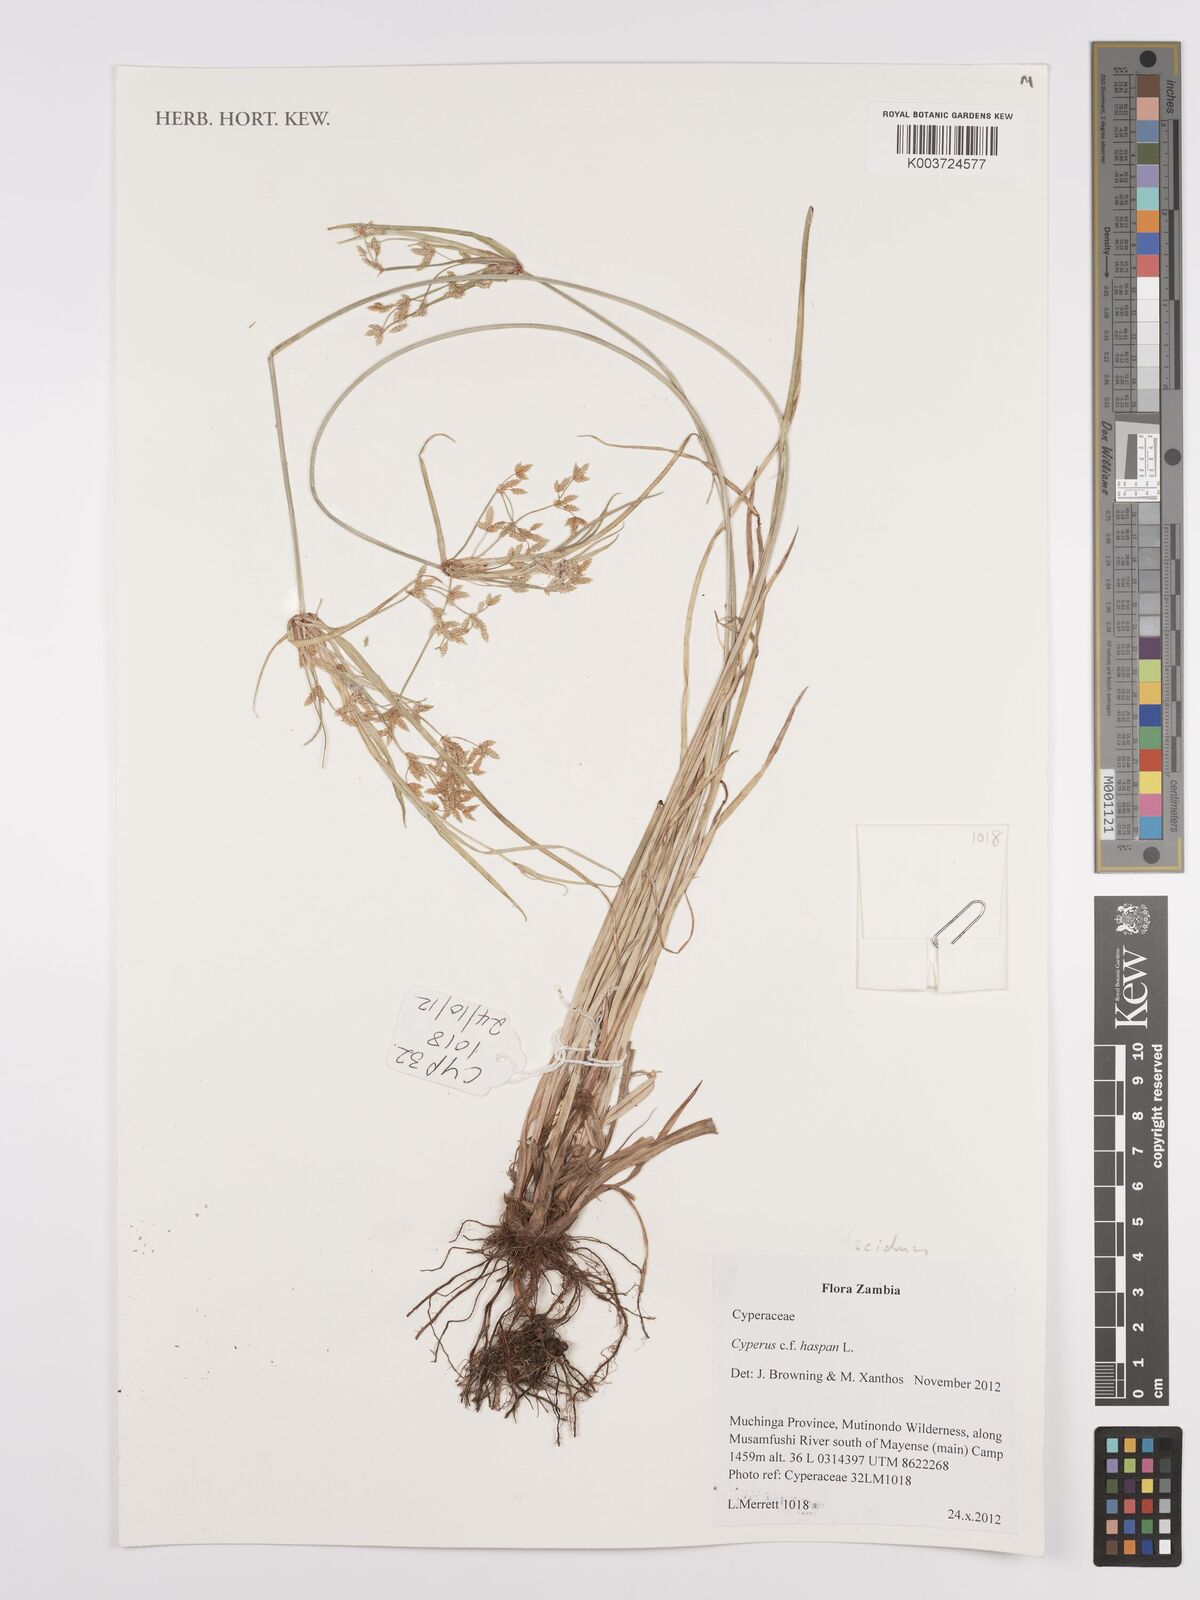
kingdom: Plantae
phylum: Tracheophyta
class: Liliopsida
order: Poales
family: Cyperaceae
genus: Cyperus
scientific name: Cyperus deciduus
